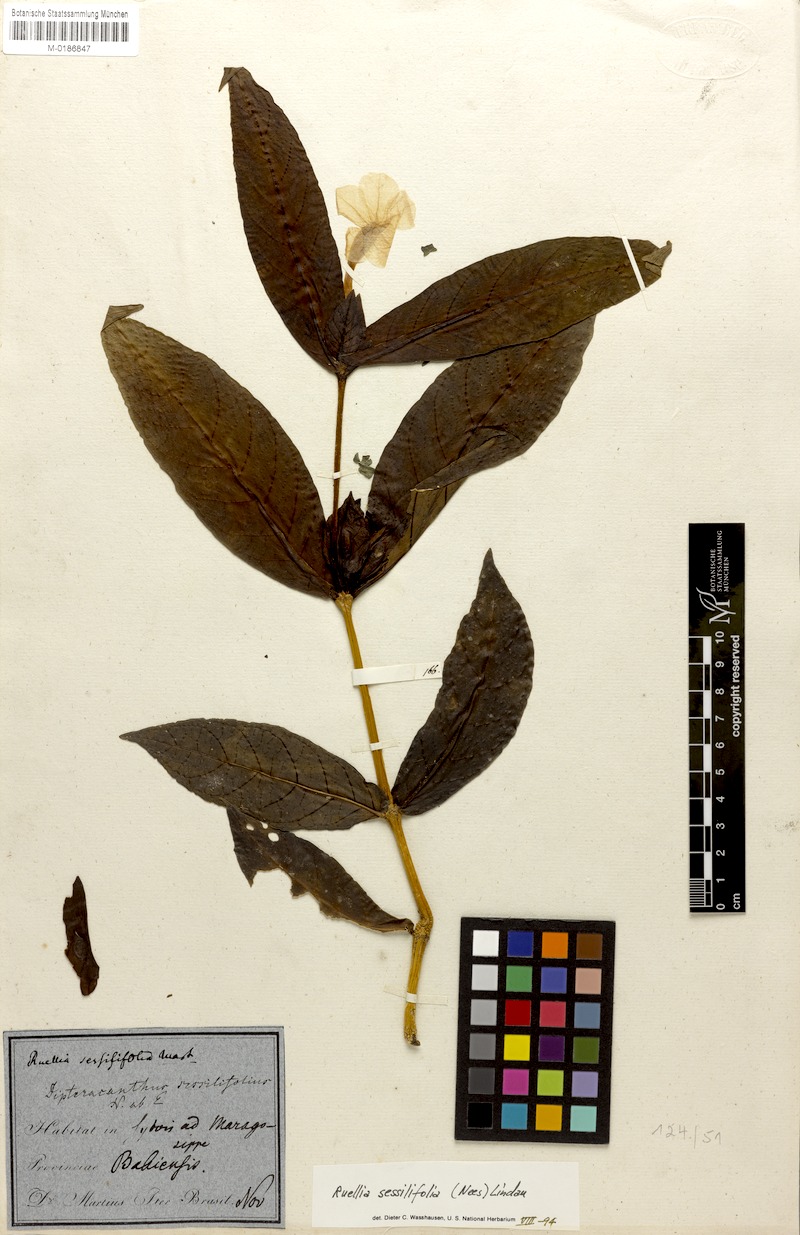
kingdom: Plantae
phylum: Tracheophyta
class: Magnoliopsida
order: Lamiales
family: Acanthaceae
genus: Ruellia
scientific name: Ruellia sessilifolia
